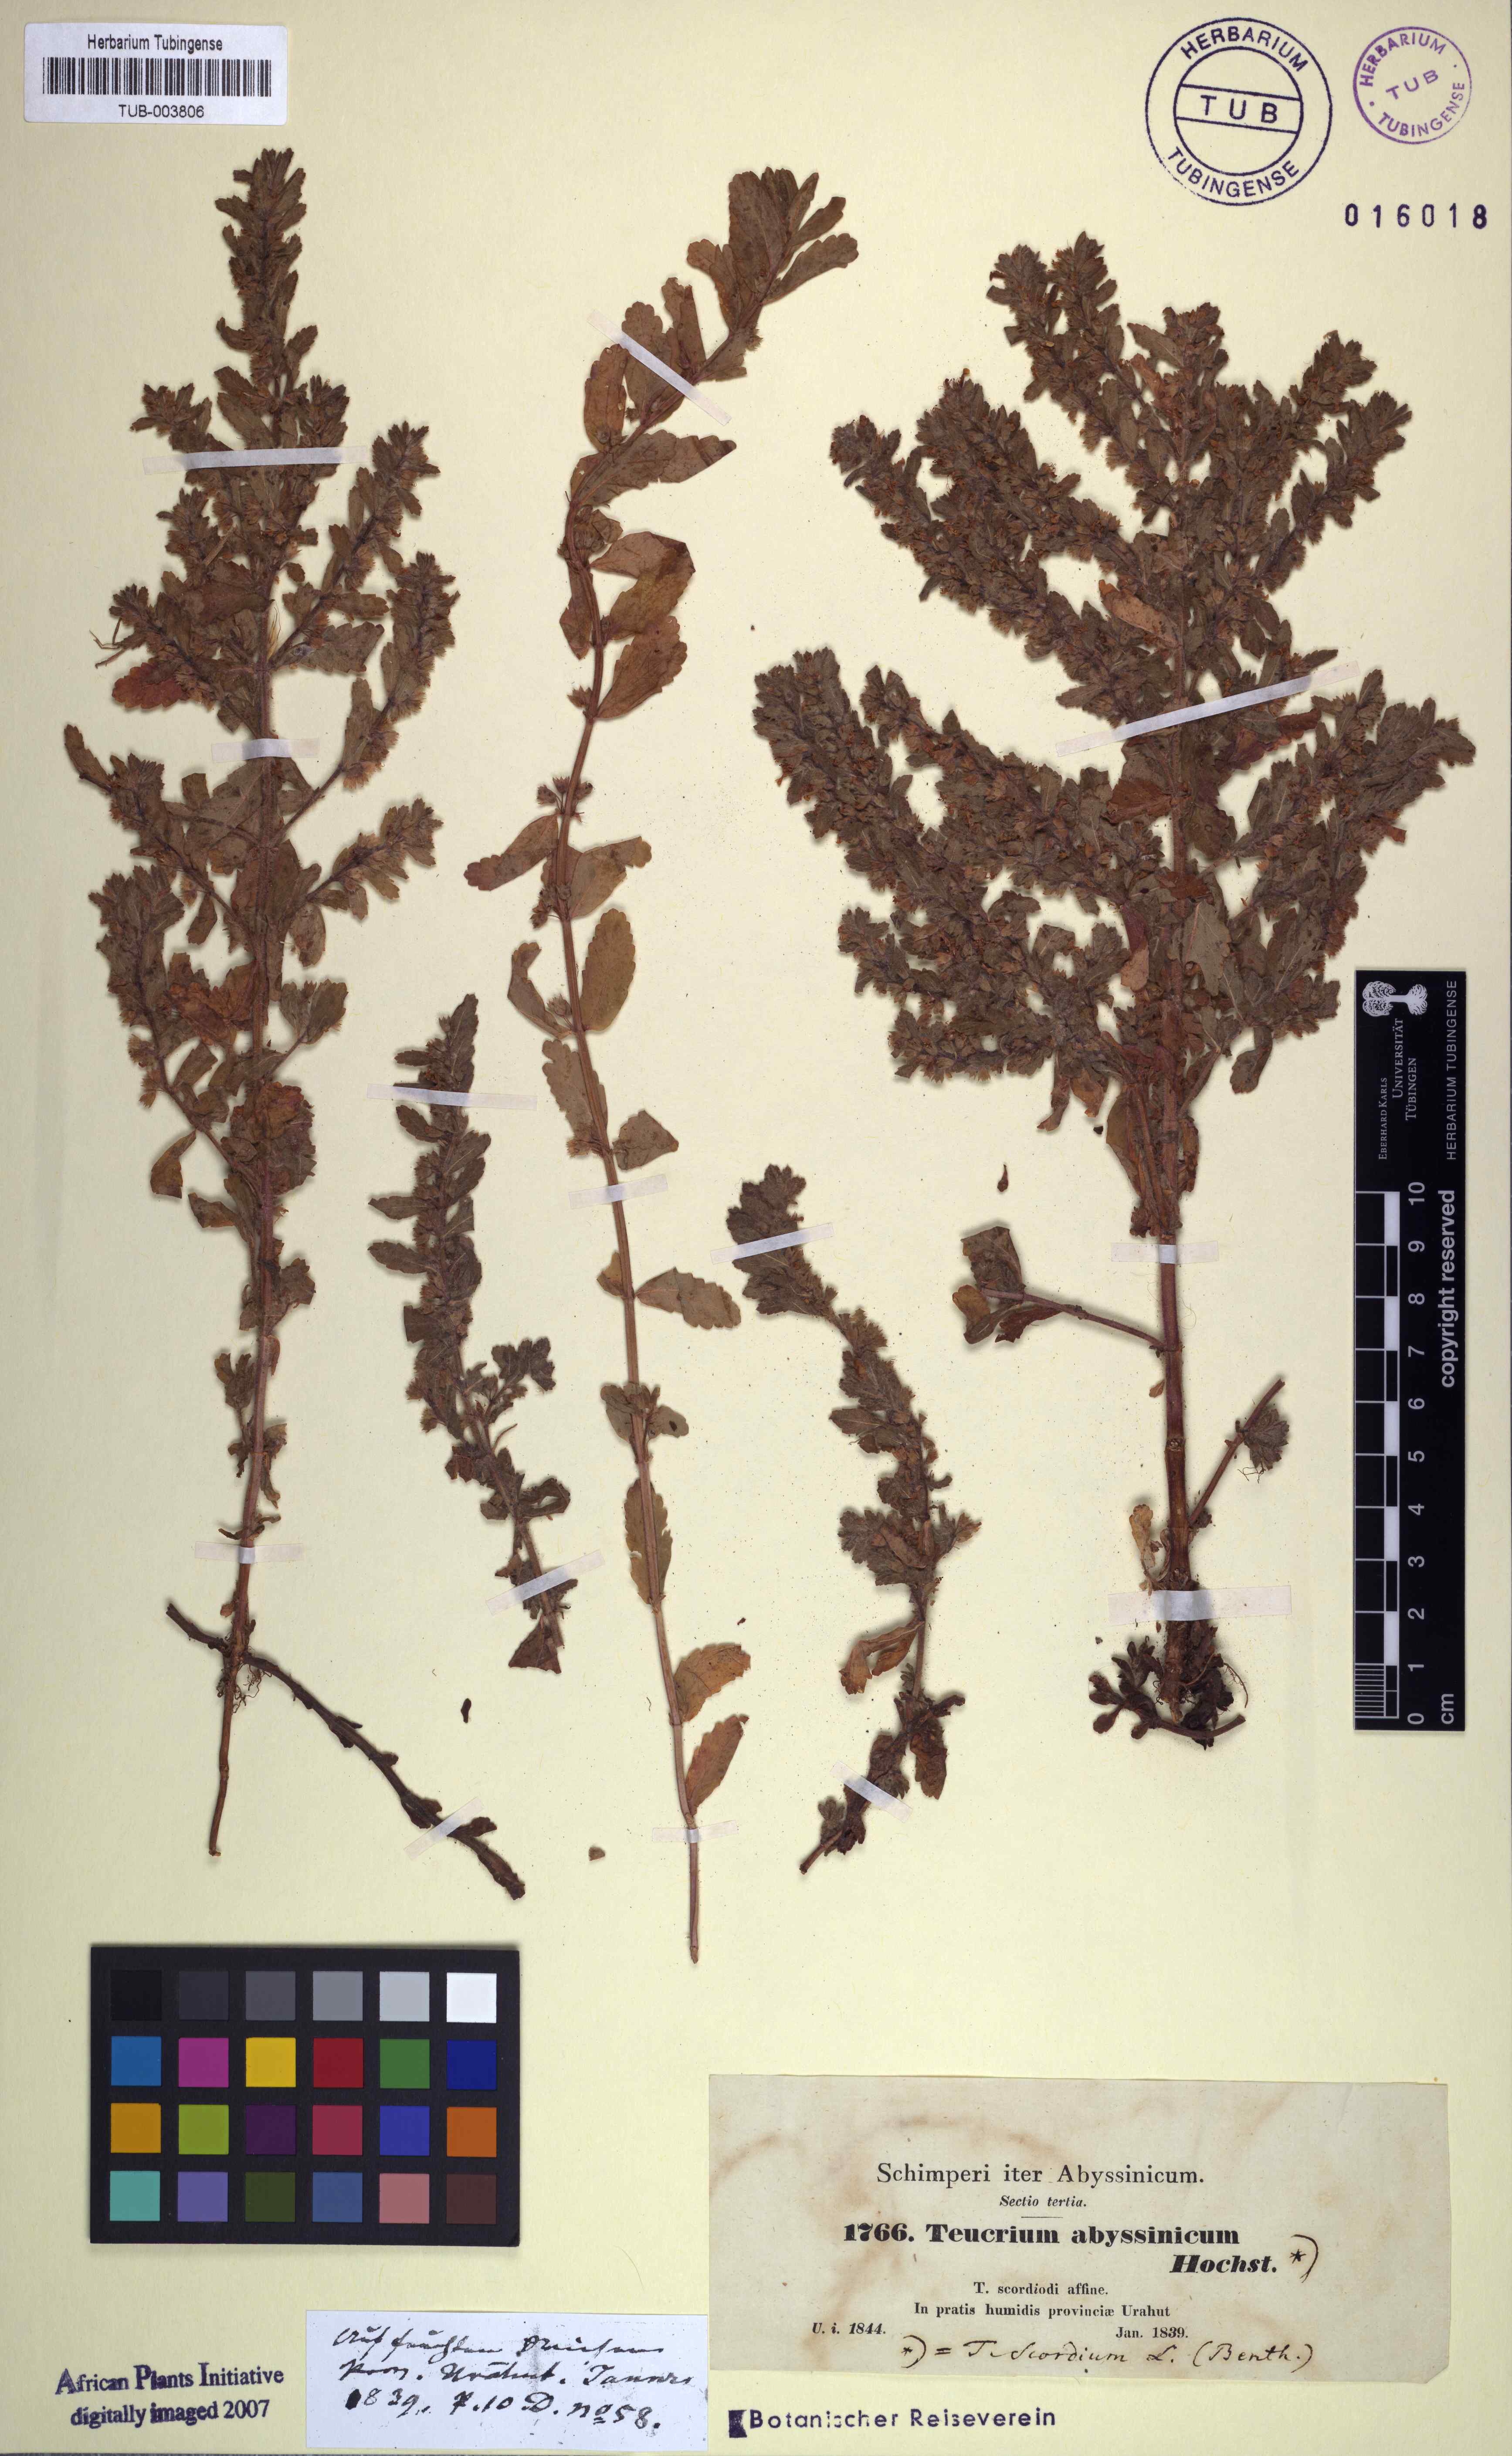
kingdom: Plantae
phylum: Tracheophyta
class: Magnoliopsida
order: Lamiales
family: Lamiaceae
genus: Teucrium
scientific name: Teucrium scordium
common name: Water germander
